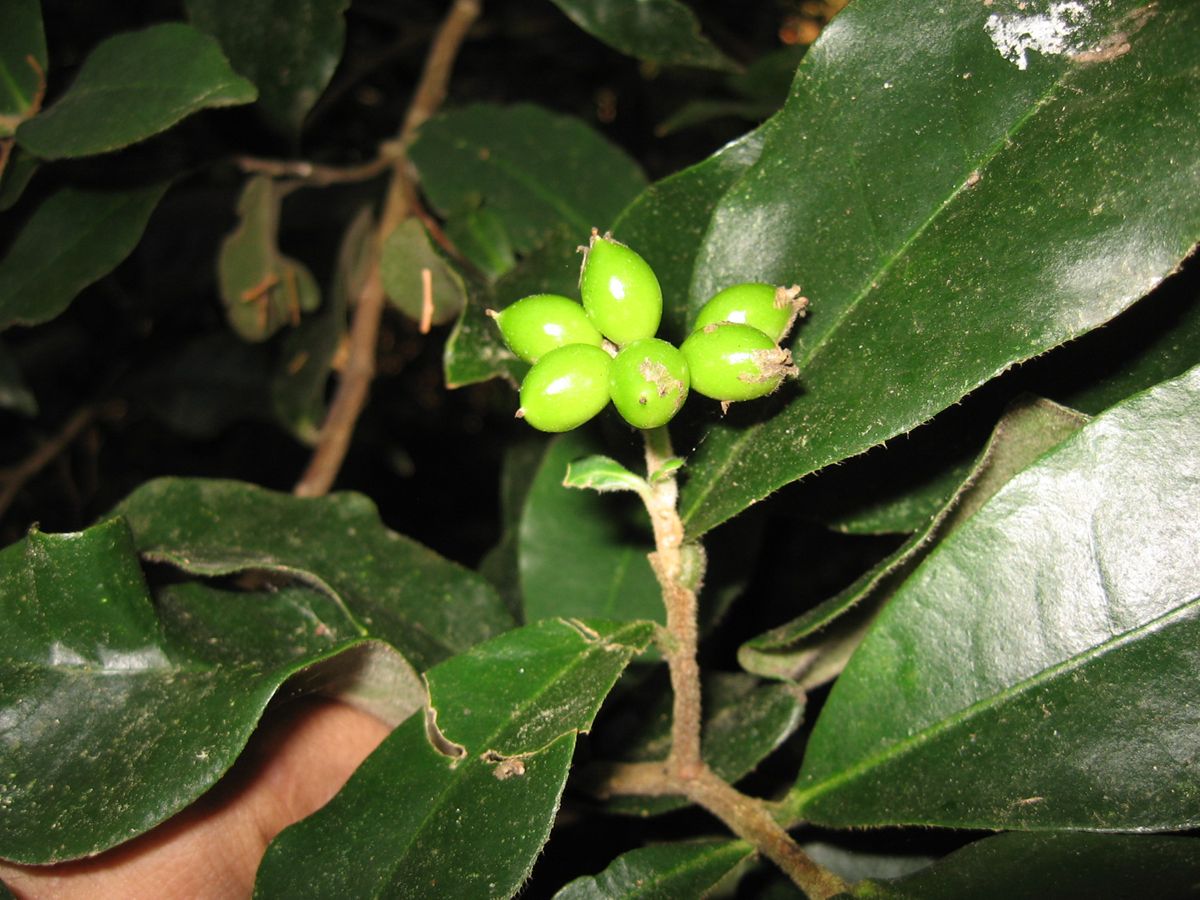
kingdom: Plantae
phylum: Tracheophyta
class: Magnoliopsida
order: Malvales
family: Thymelaeaceae
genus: Daphnopsis
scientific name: Daphnopsis selerorum
